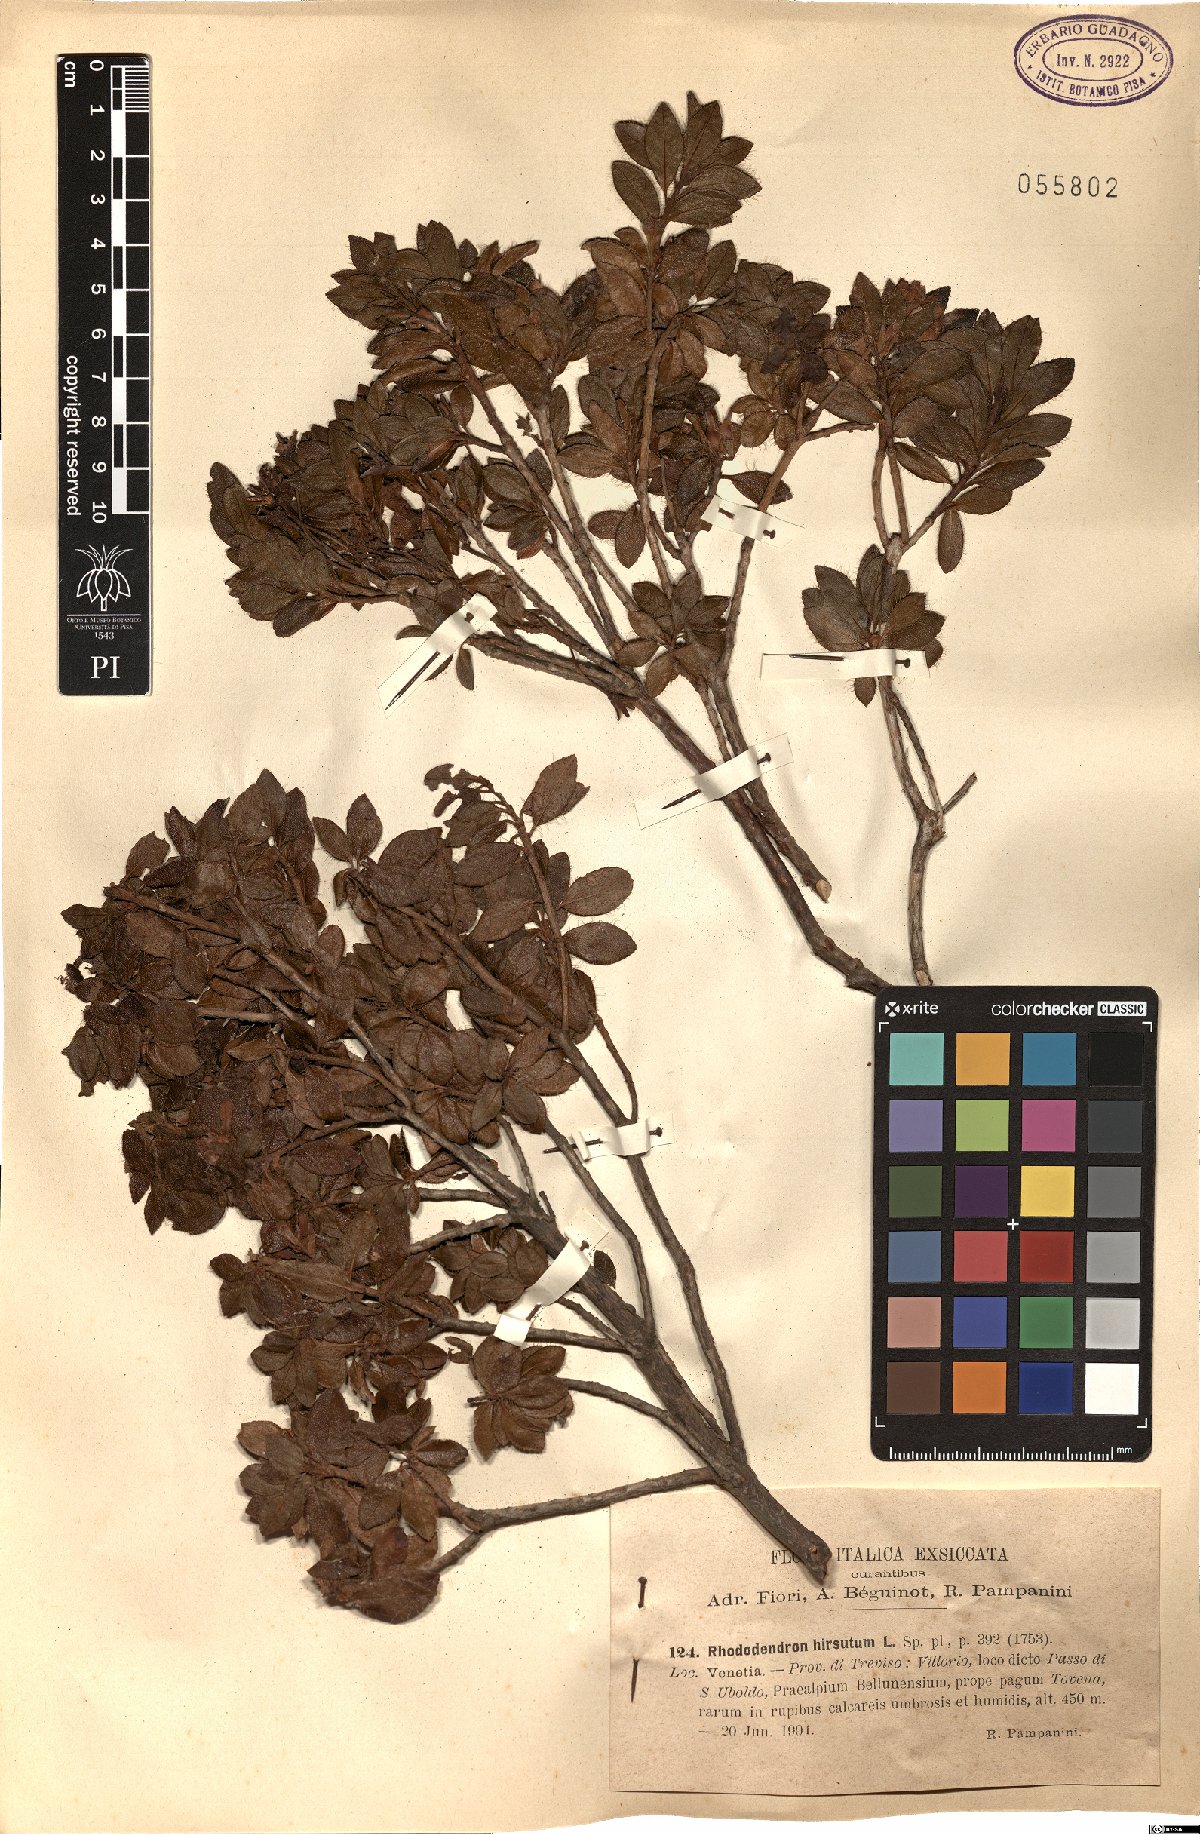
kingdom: Plantae
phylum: Tracheophyta
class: Magnoliopsida
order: Ericales
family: Ericaceae
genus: Rhododendron
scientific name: Rhododendron hirsutum
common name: Hairy alpenrose
